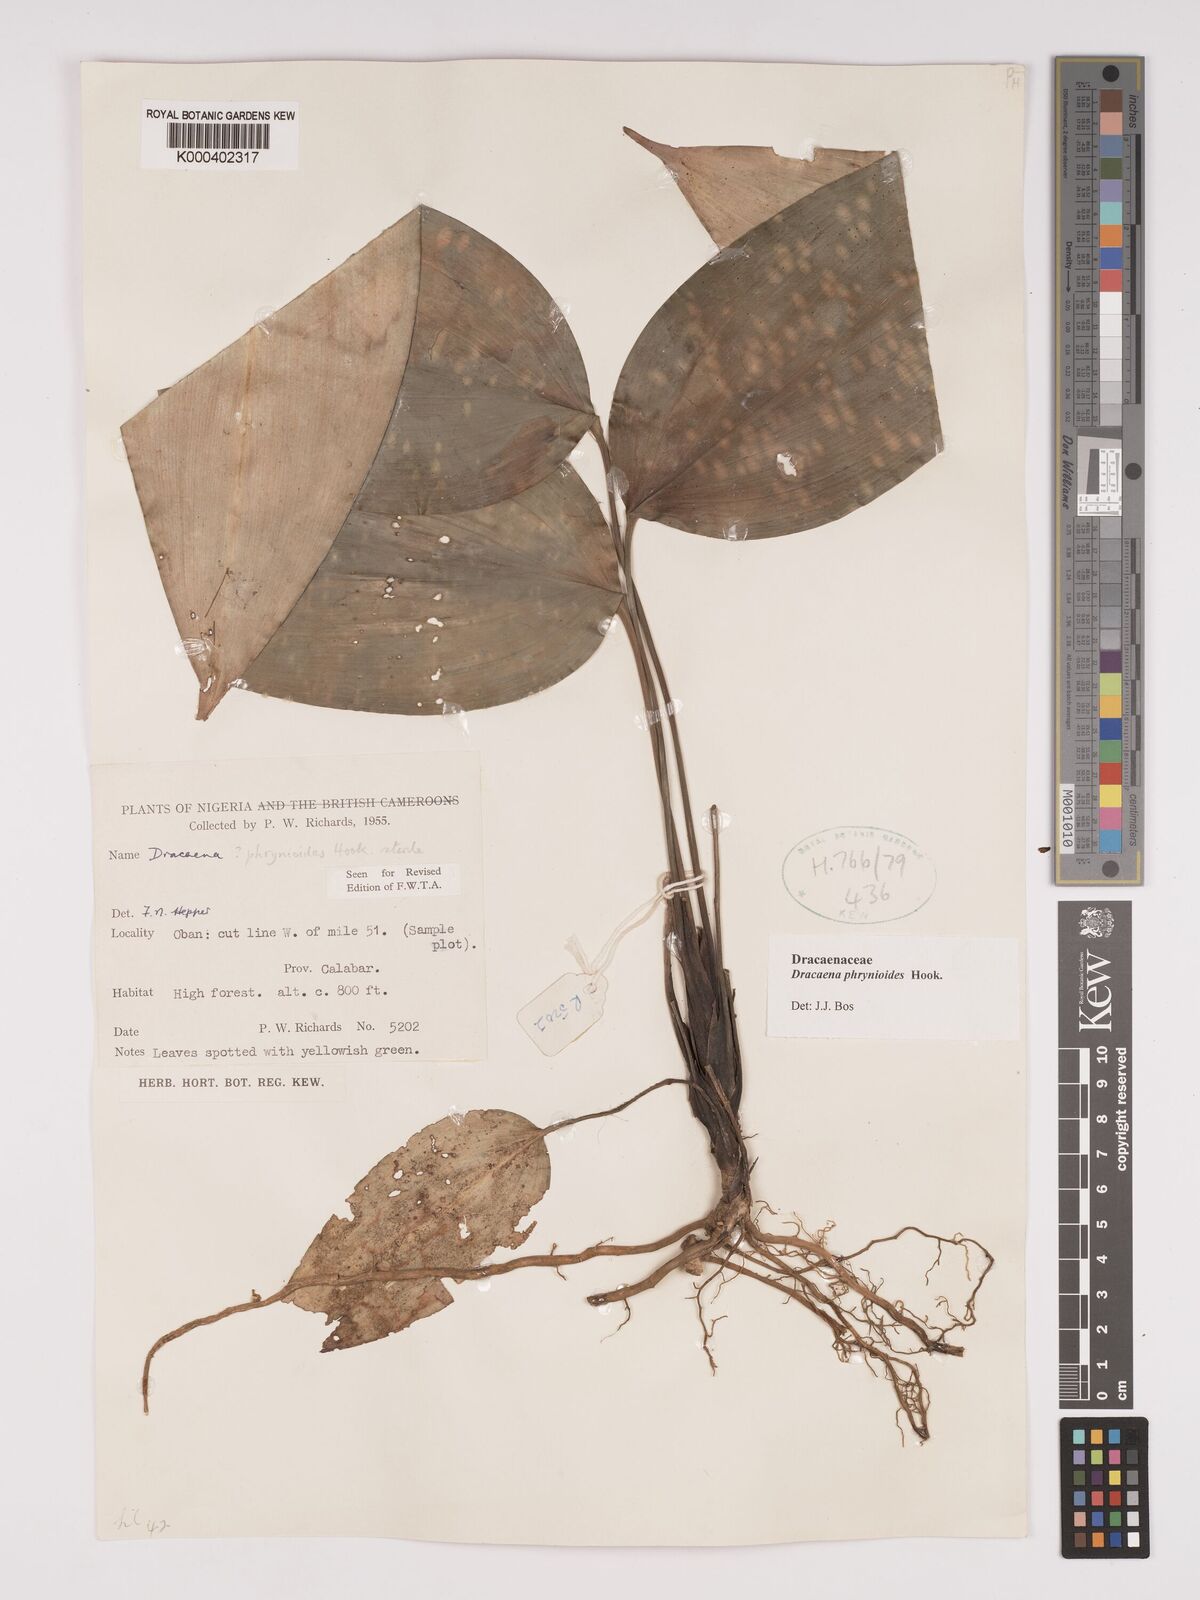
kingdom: Plantae
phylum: Tracheophyta
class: Liliopsida
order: Asparagales
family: Asparagaceae
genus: Dracaena
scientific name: Dracaena phrynioides
